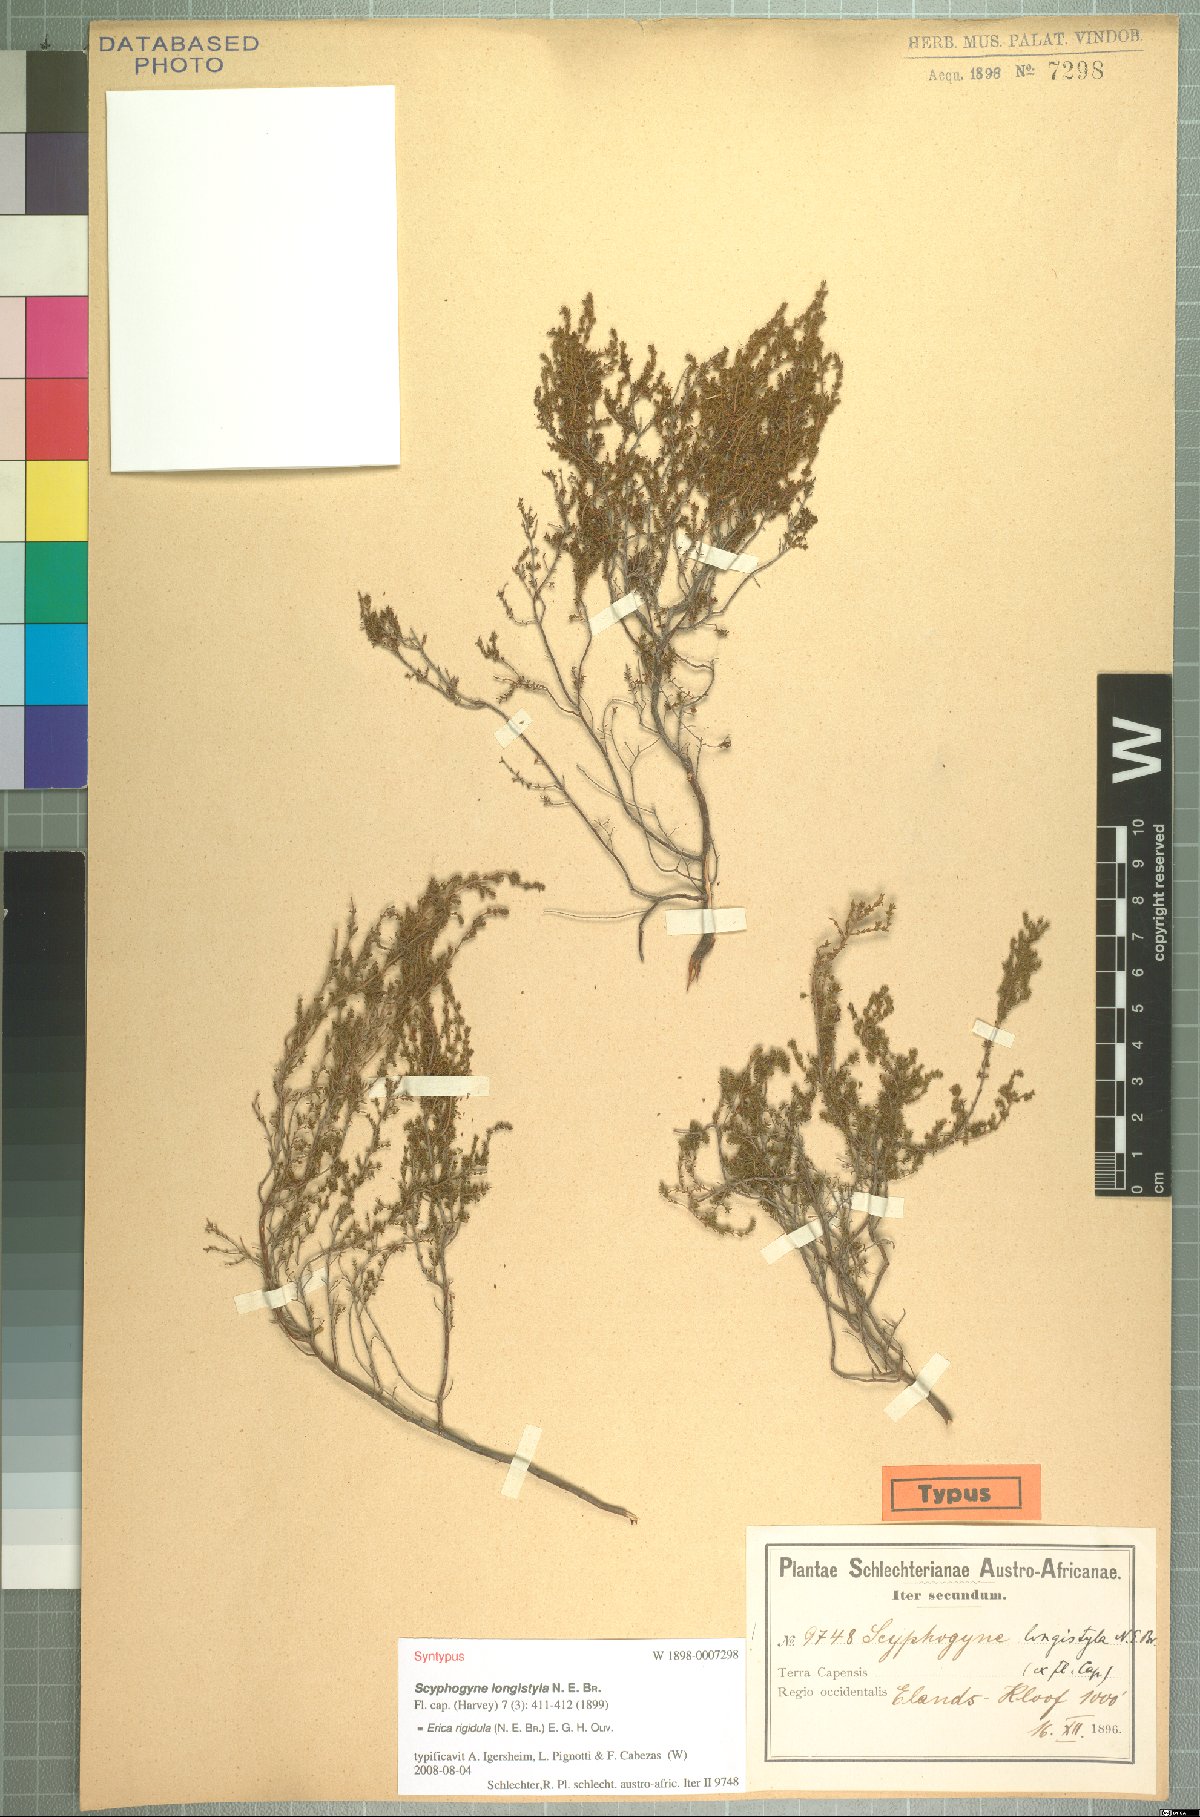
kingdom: Plantae
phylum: Tracheophyta
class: Magnoliopsida
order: Ericales
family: Ericaceae
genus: Erica
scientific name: Erica rigidula
